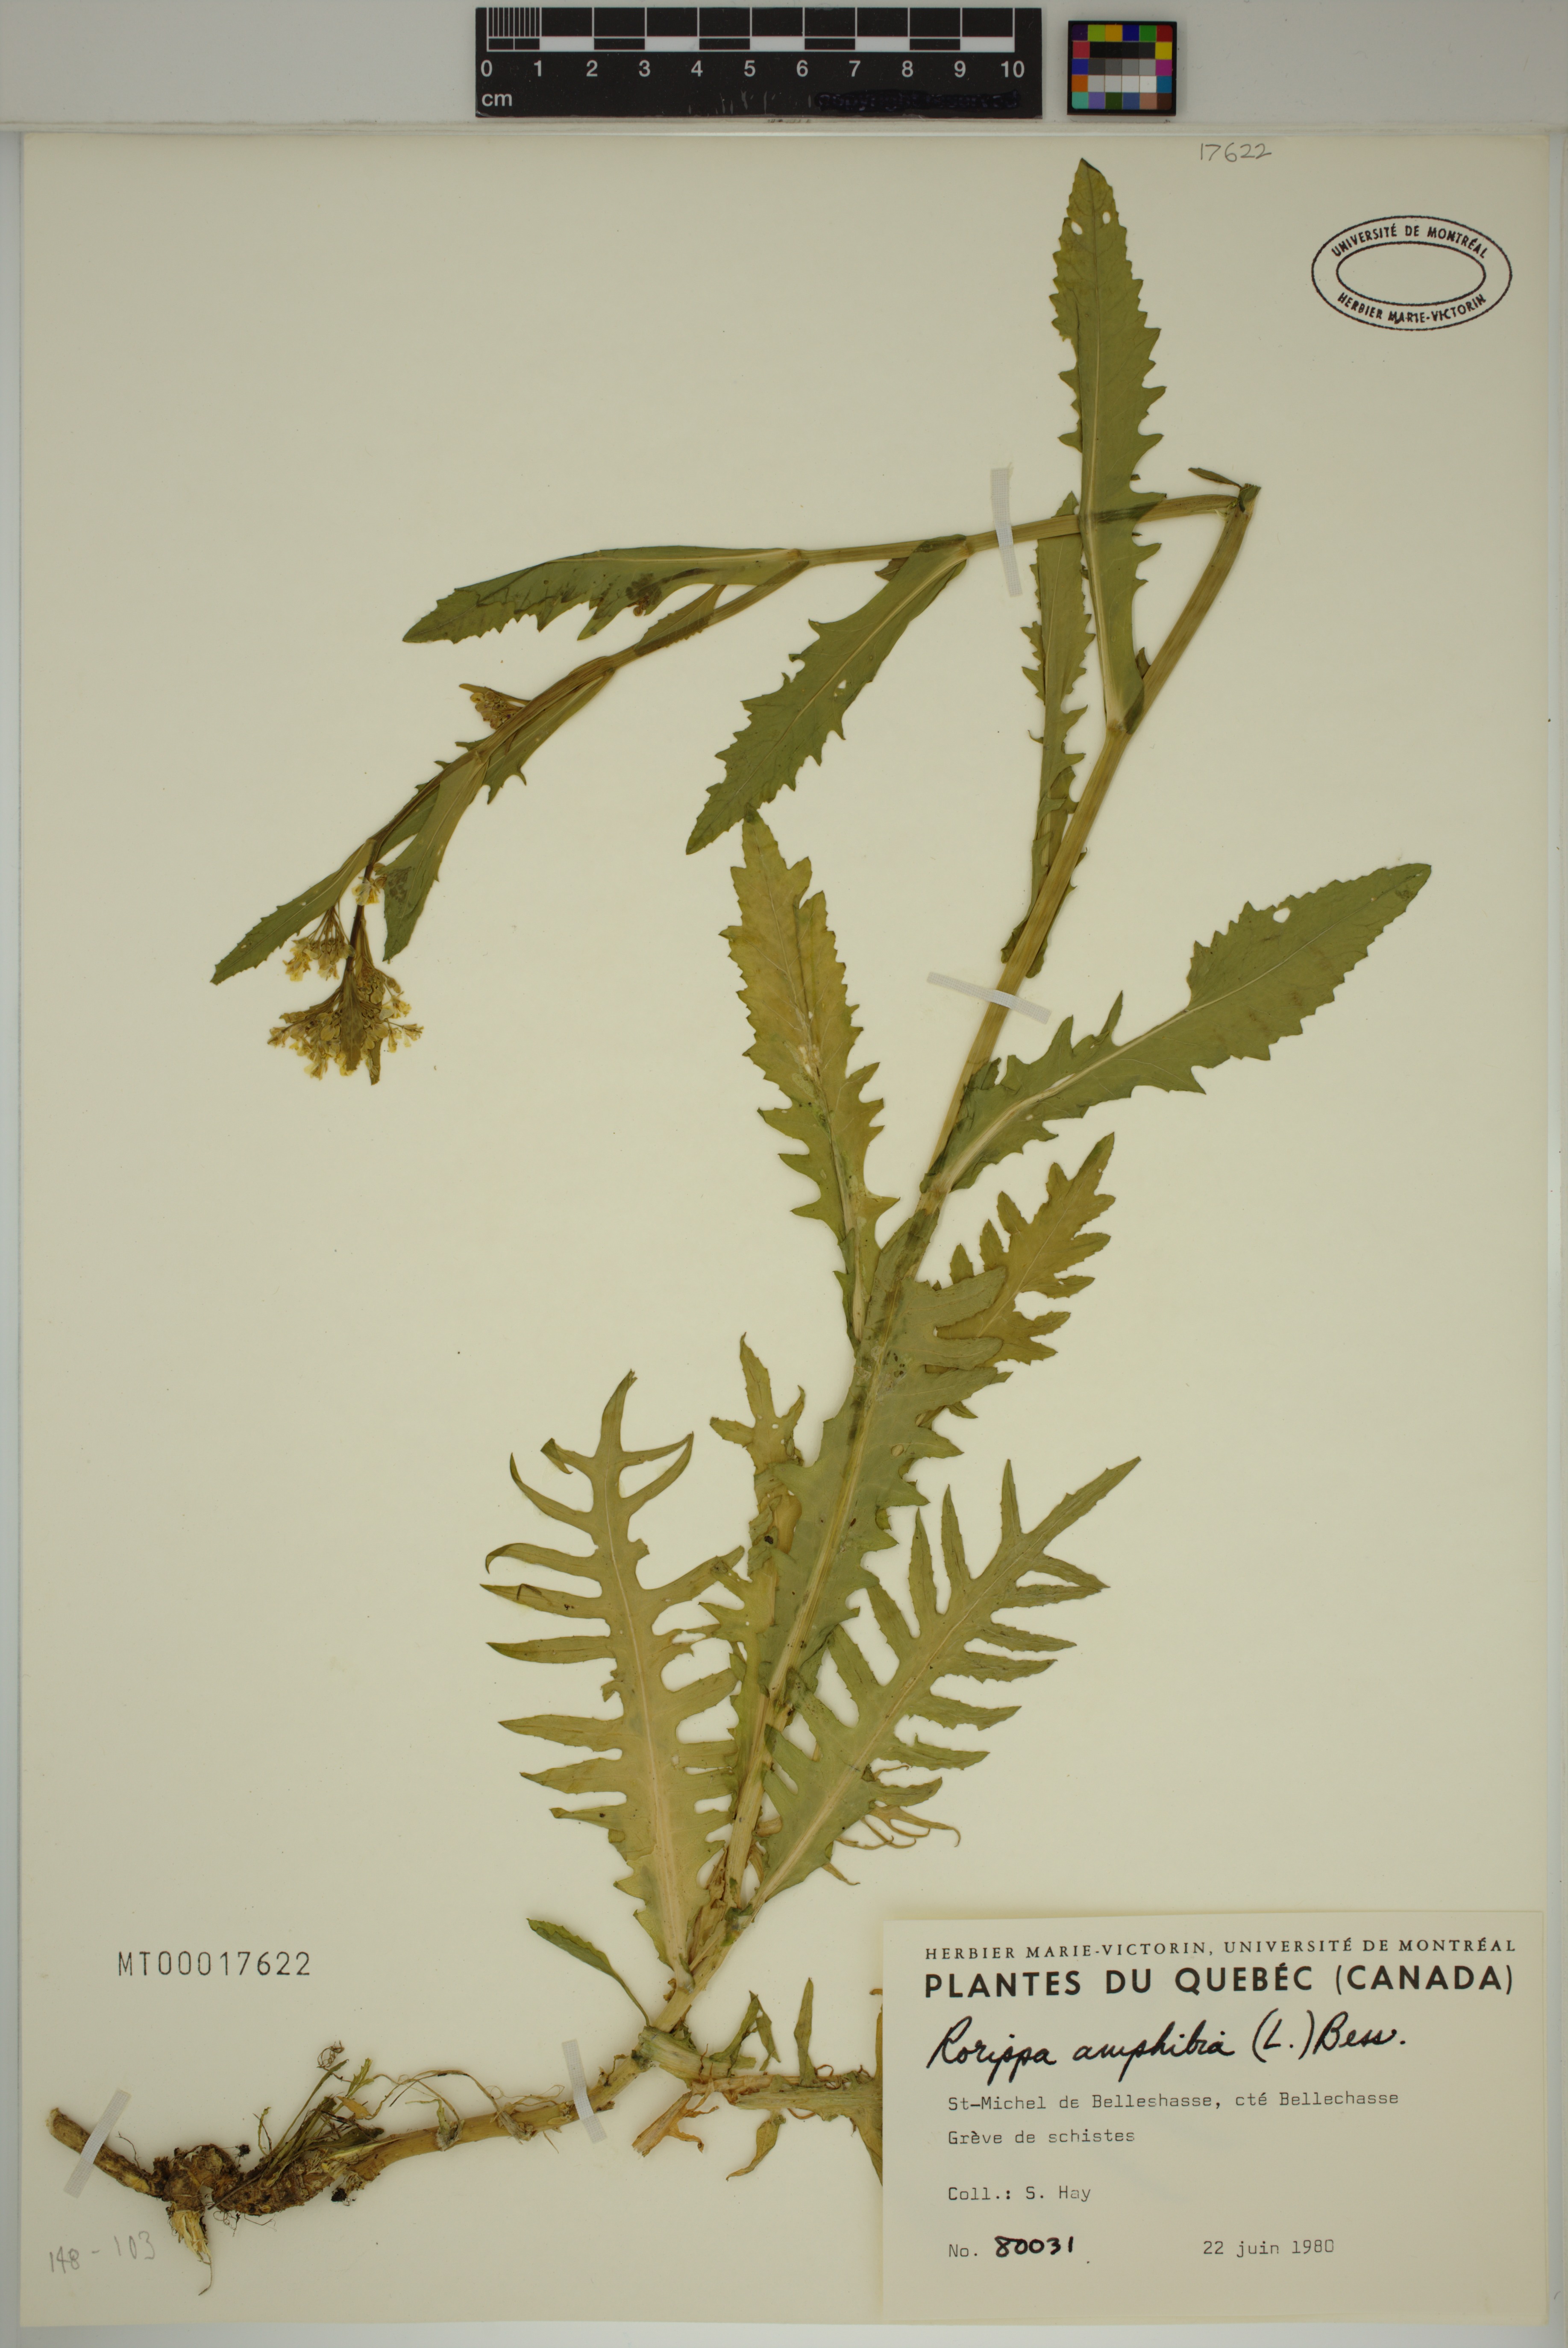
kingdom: Plantae
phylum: Tracheophyta
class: Magnoliopsida
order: Brassicales
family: Brassicaceae
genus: Rorippa
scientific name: Rorippa amphibia
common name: Great yellow-cress
